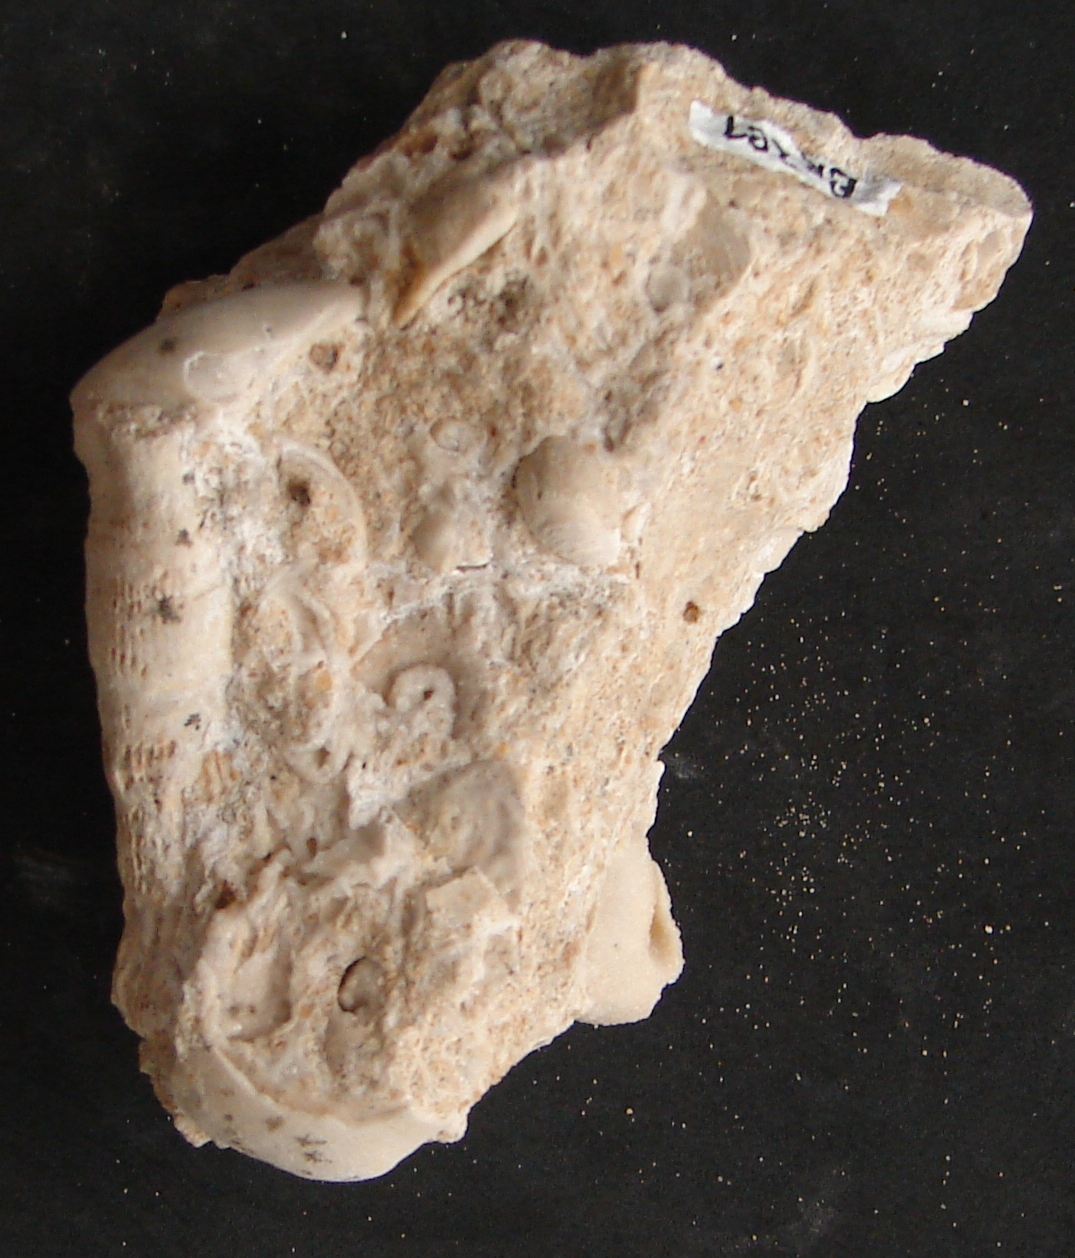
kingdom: Animalia
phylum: Mollusca
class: Bivalvia
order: Mytilida
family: Mytilidae
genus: Modiolus
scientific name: Modiolus Modiola hillana
